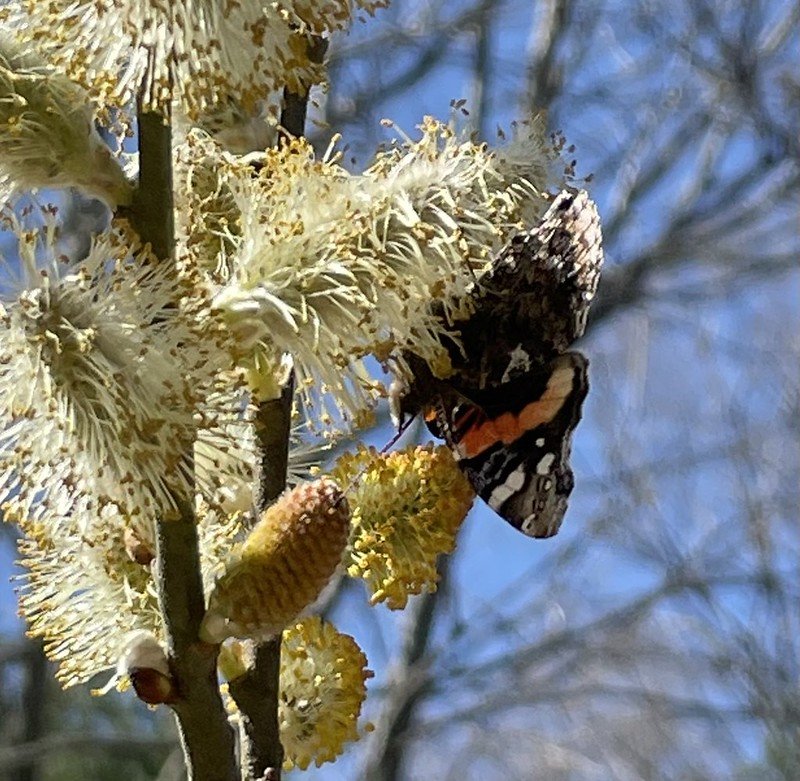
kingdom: Animalia
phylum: Arthropoda
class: Insecta
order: Lepidoptera
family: Nymphalidae
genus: Vanessa
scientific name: Vanessa atalanta
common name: Red Admiral
